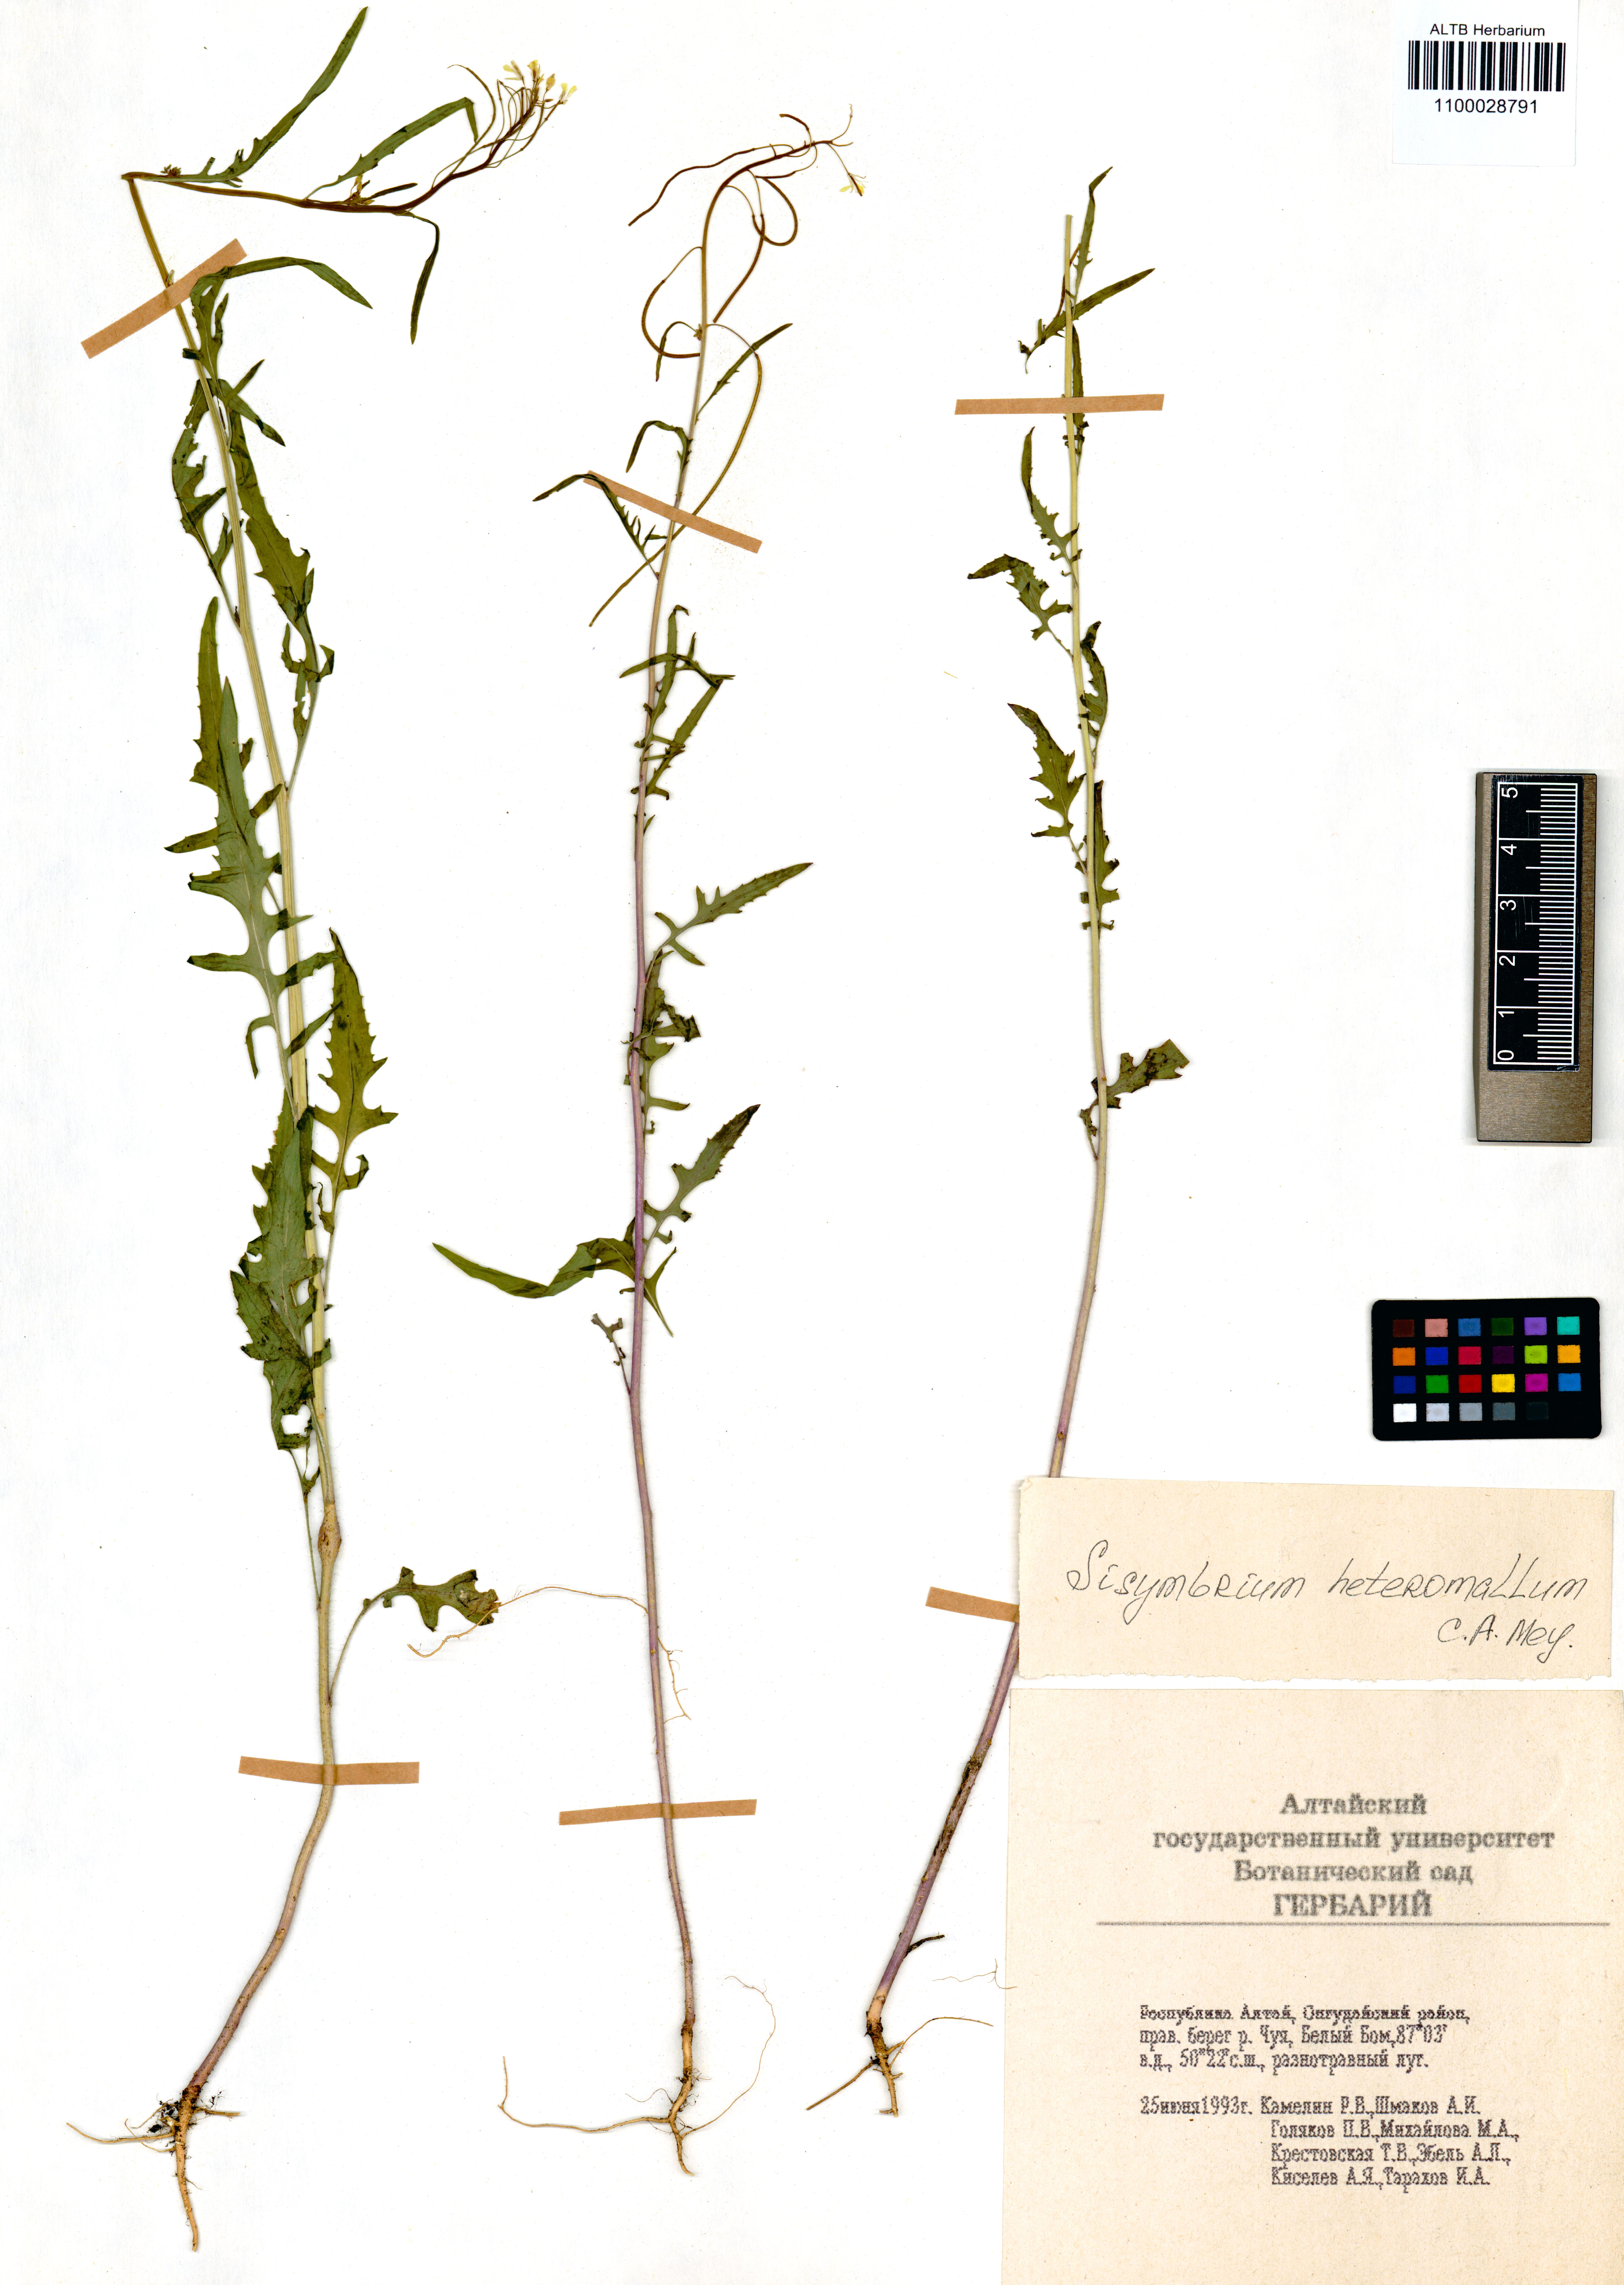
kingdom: Plantae
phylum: Tracheophyta
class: Magnoliopsida
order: Brassicales
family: Brassicaceae
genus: Sisymbrium
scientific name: Sisymbrium heteromallum
